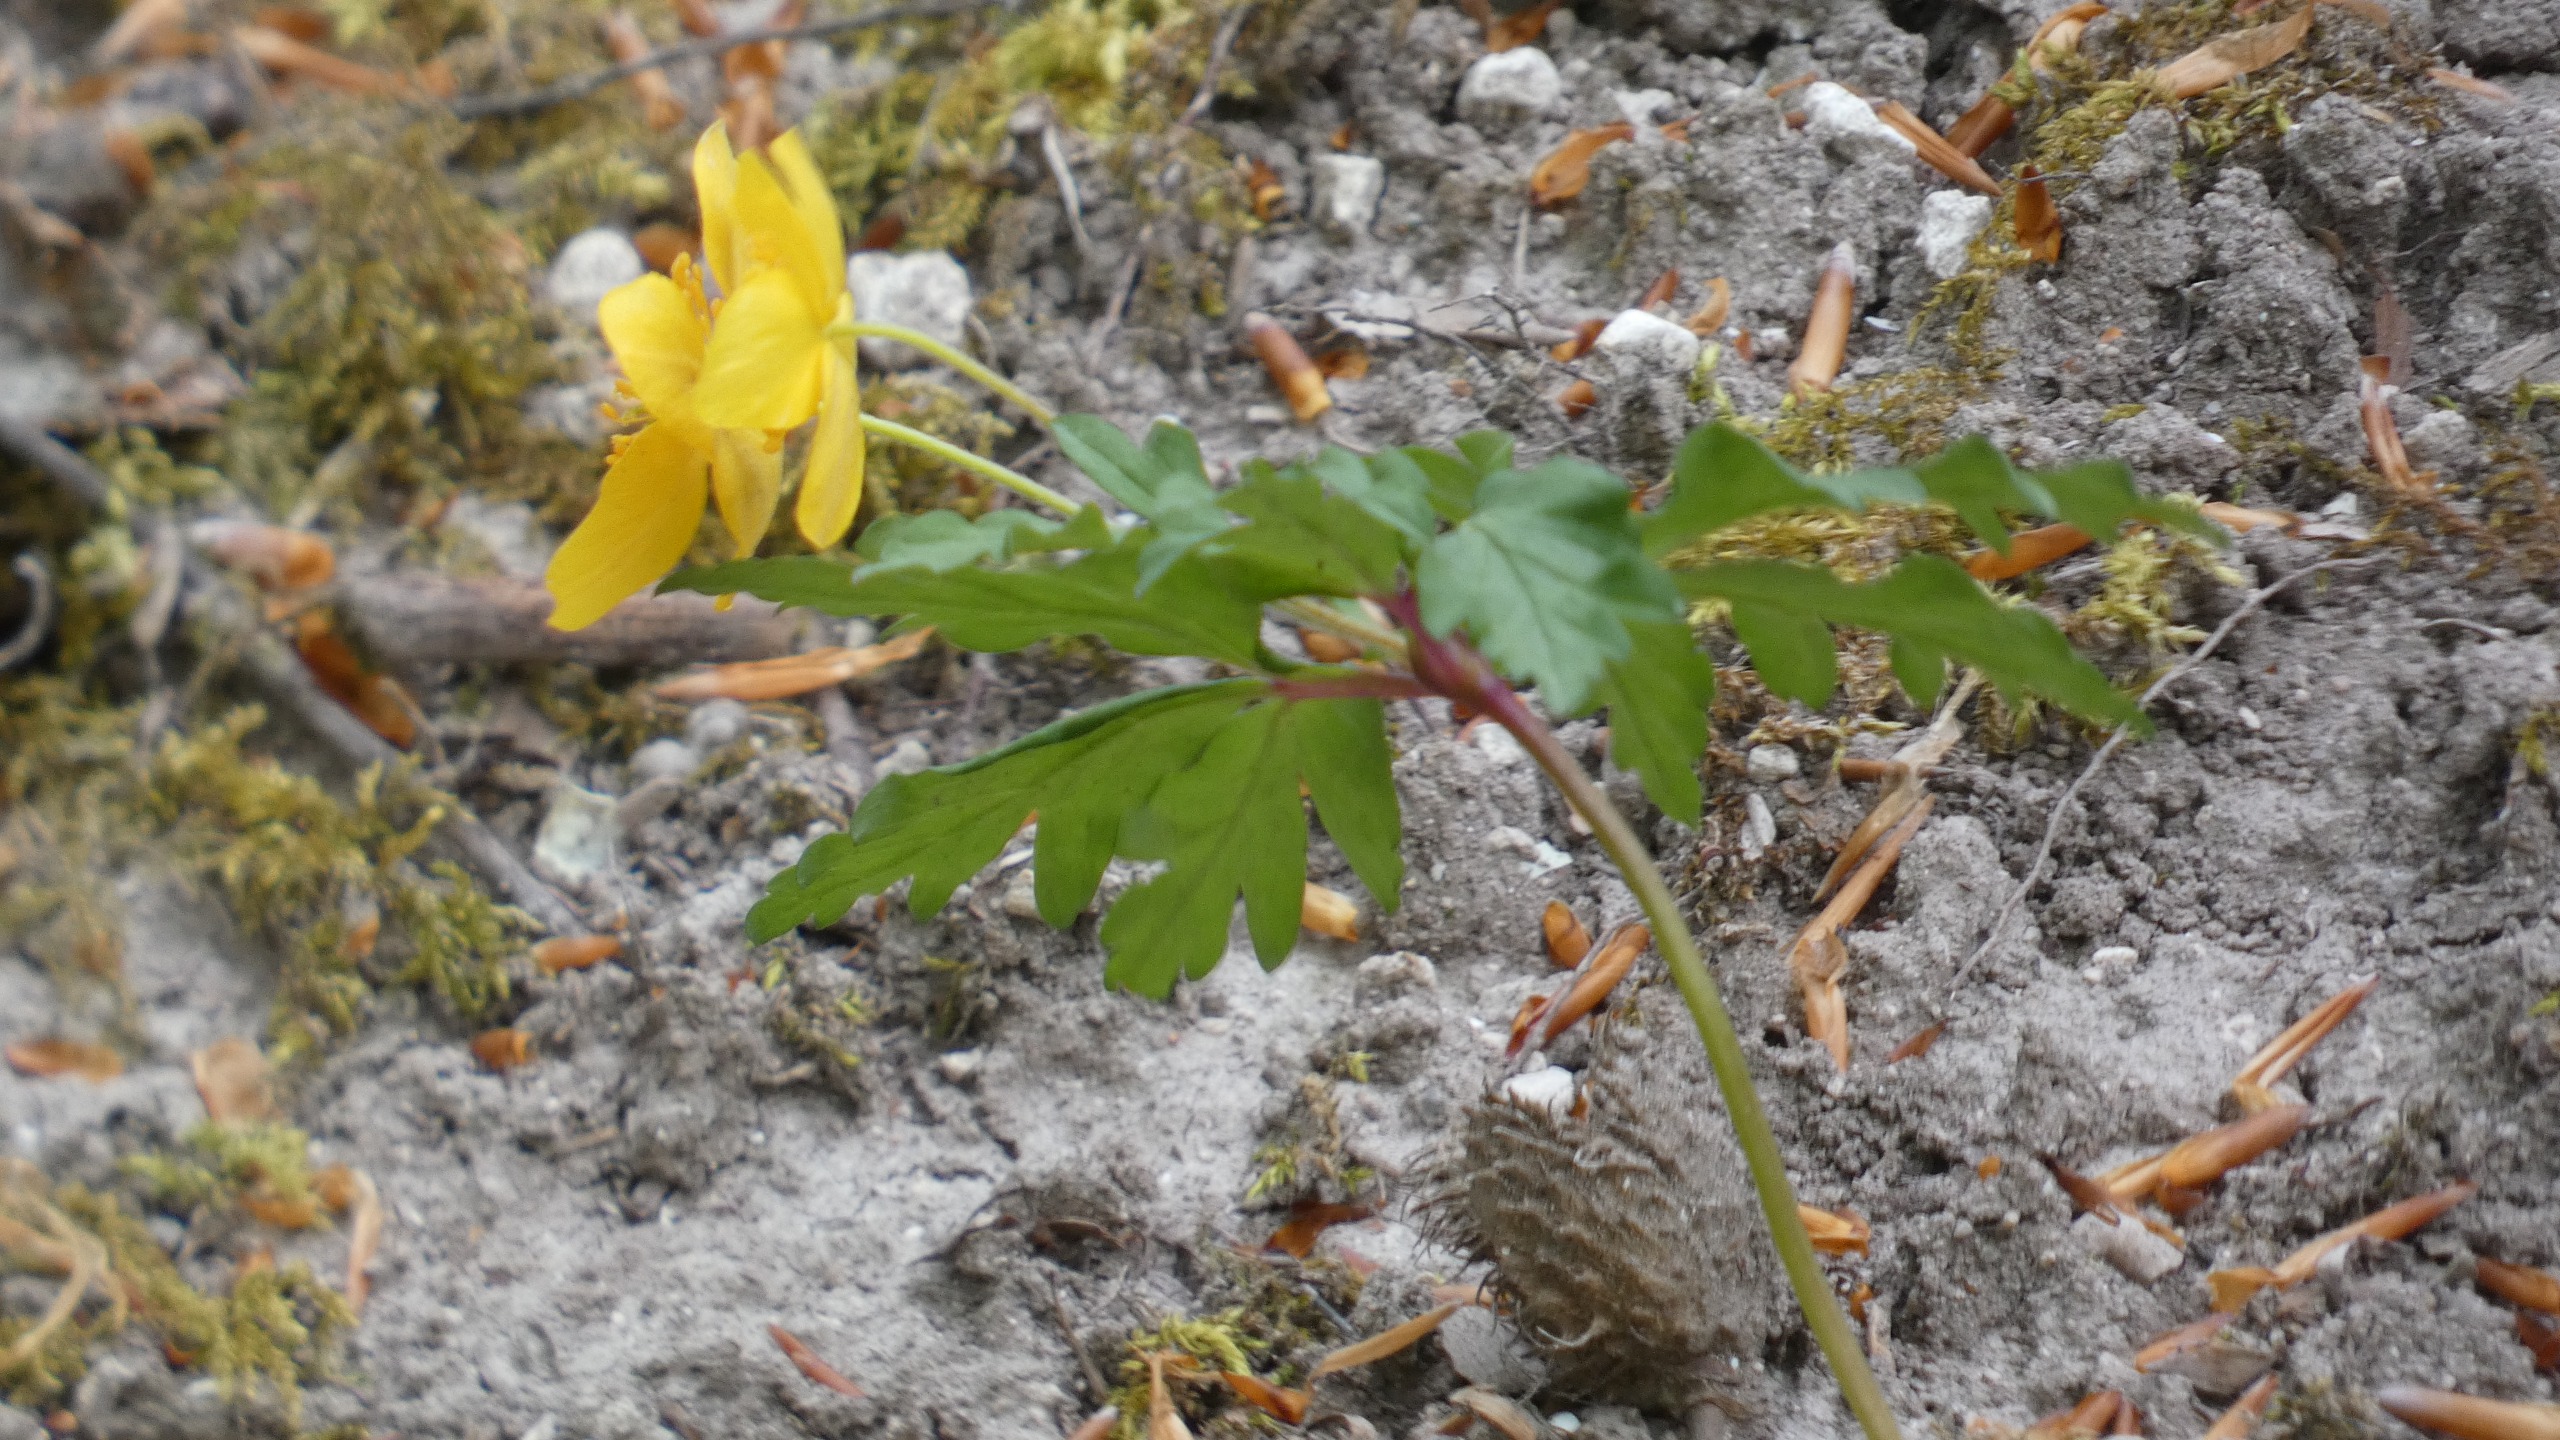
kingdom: Plantae
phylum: Tracheophyta
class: Magnoliopsida
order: Ranunculales
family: Ranunculaceae
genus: Anemone
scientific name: Anemone ranunculoides
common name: Gul anemone
